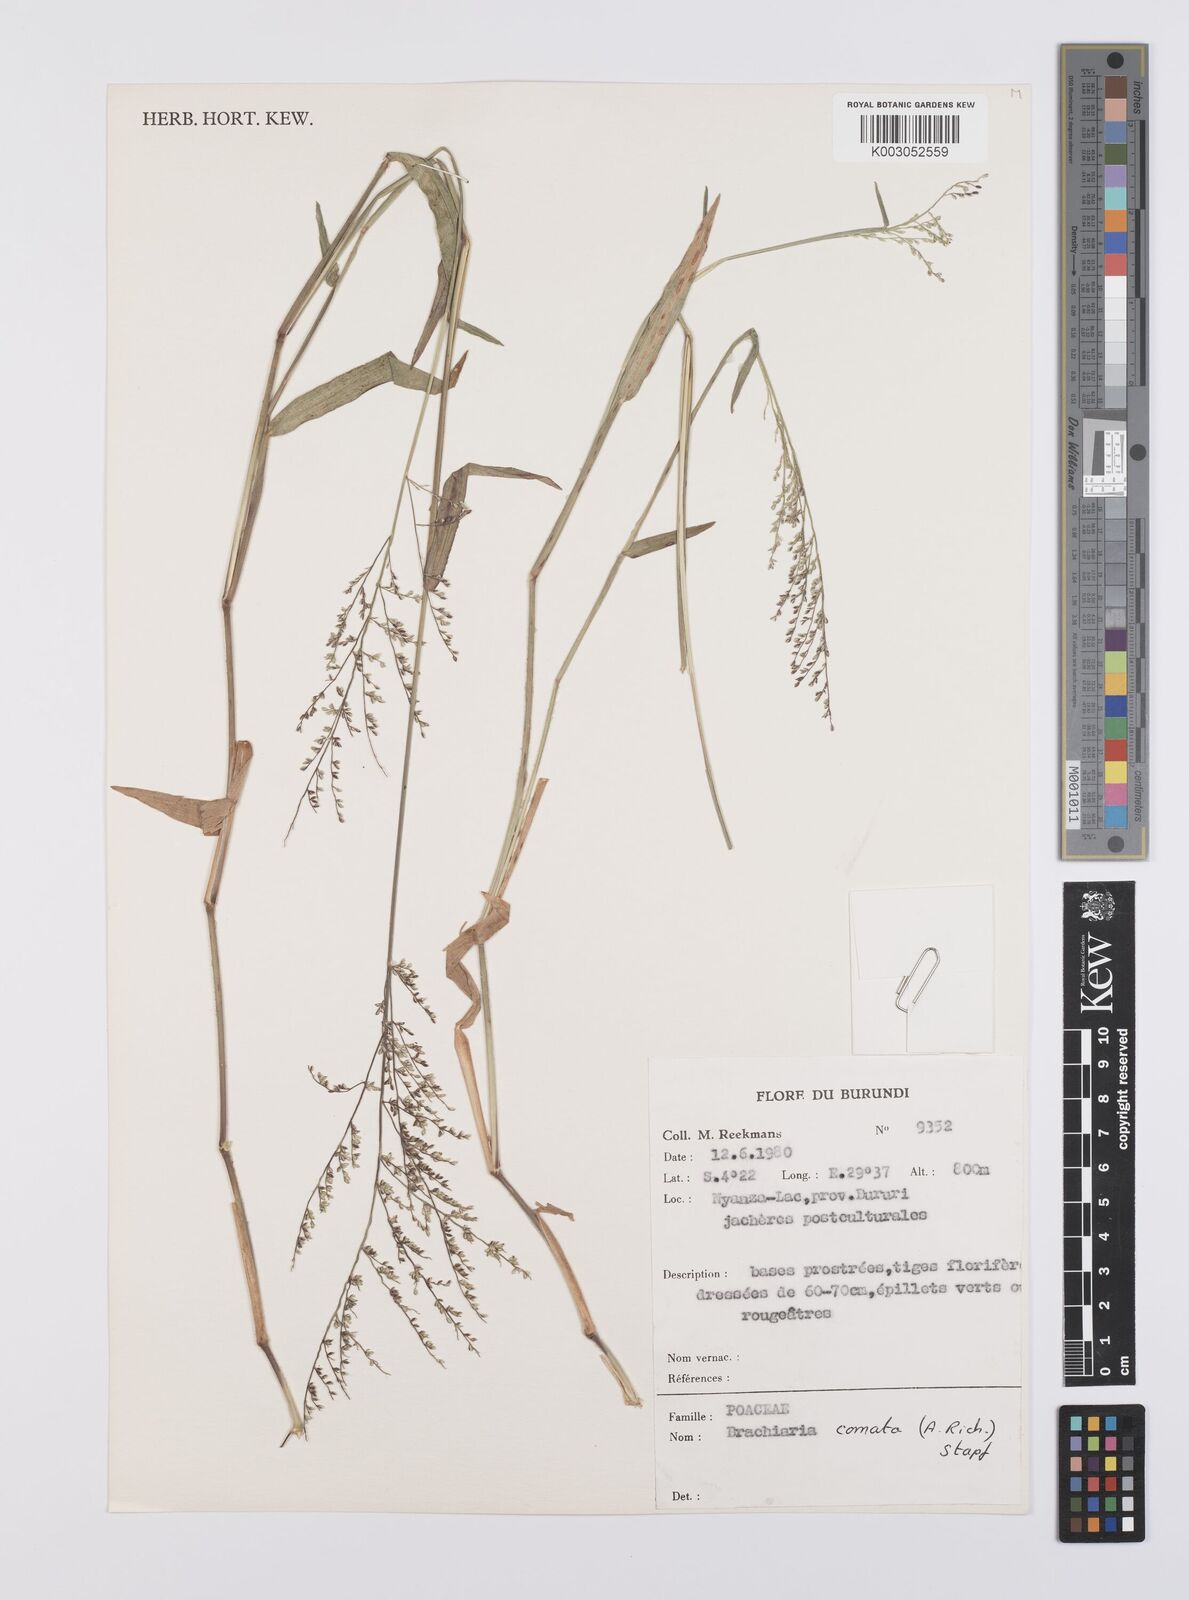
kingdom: Plantae
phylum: Tracheophyta
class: Liliopsida
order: Poales
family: Poaceae
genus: Urochloa
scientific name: Urochloa comata
